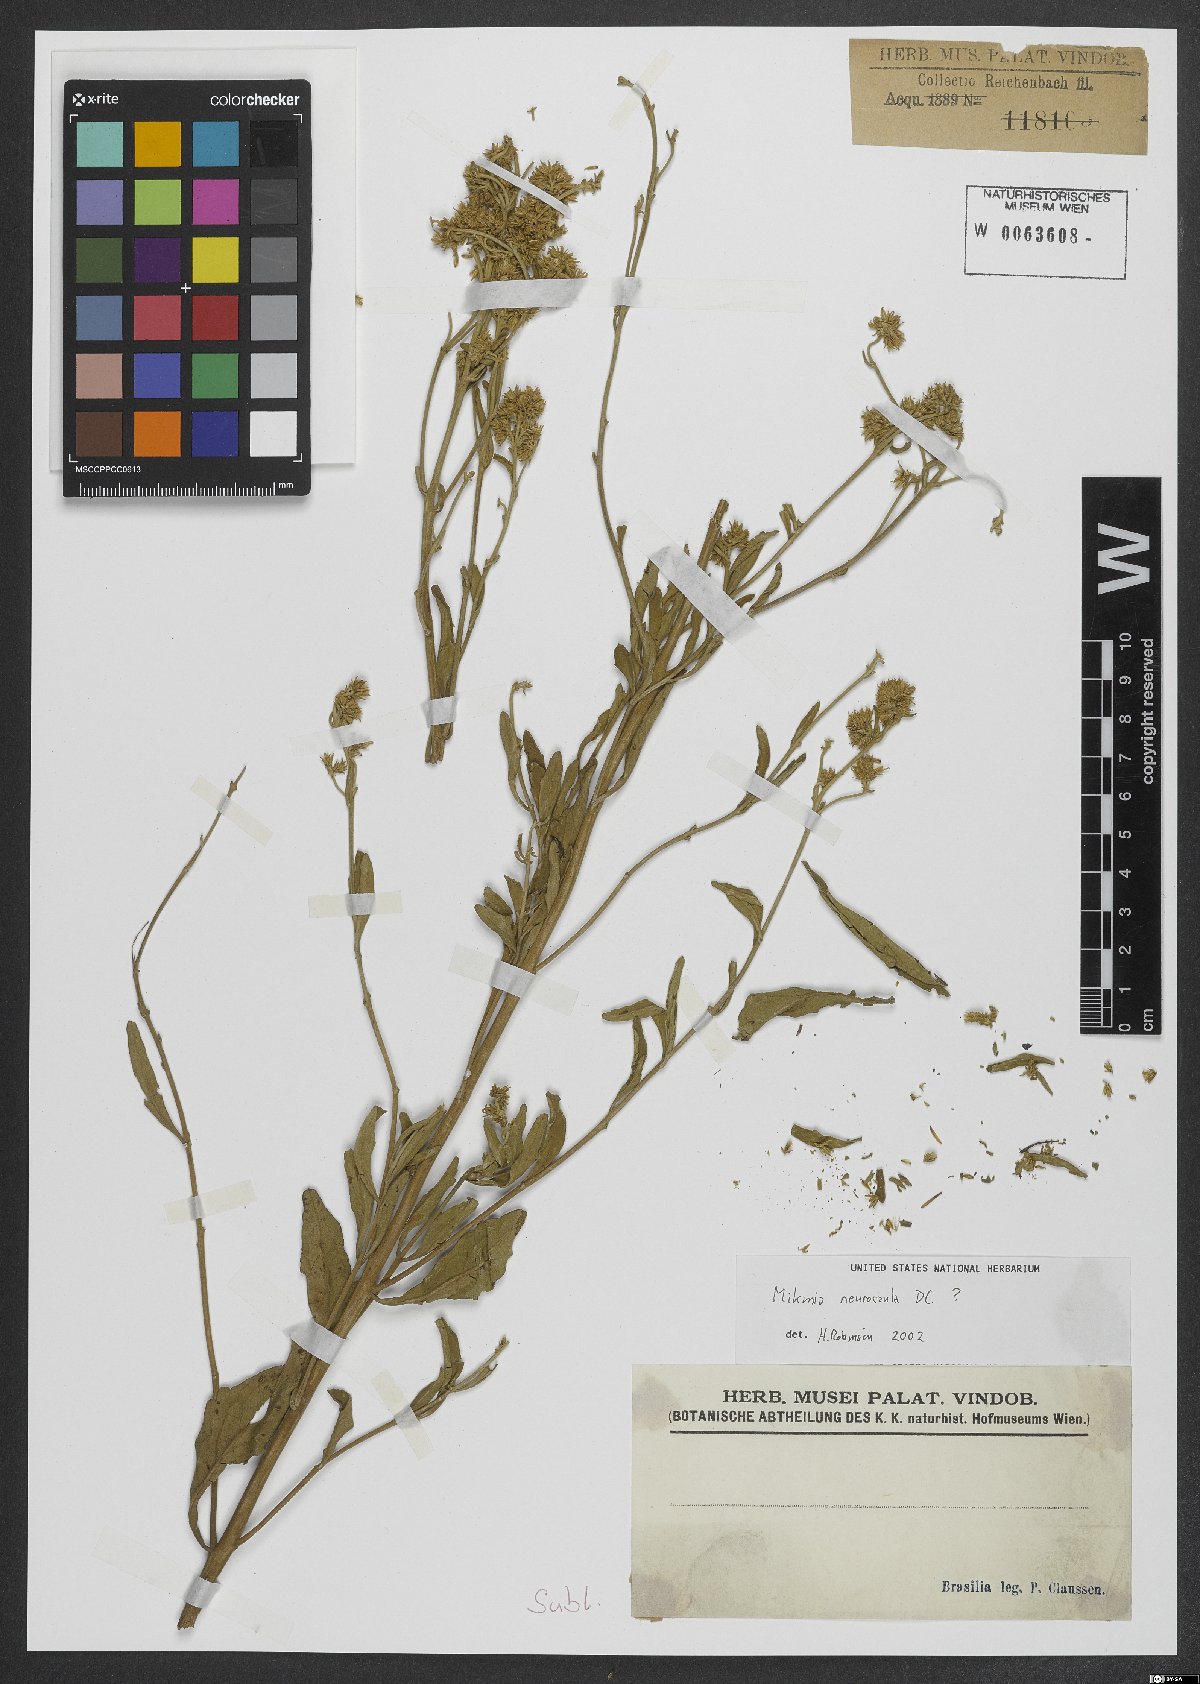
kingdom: Plantae
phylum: Tracheophyta
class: Magnoliopsida
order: Asterales
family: Asteraceae
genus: Mikania
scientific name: Mikania neurocaula
